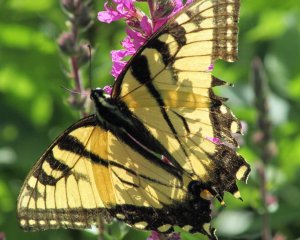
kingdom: Animalia
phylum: Arthropoda
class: Insecta
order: Lepidoptera
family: Papilionidae
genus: Pterourus
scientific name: Pterourus glaucus
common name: Eastern Tiger Swallowtail
